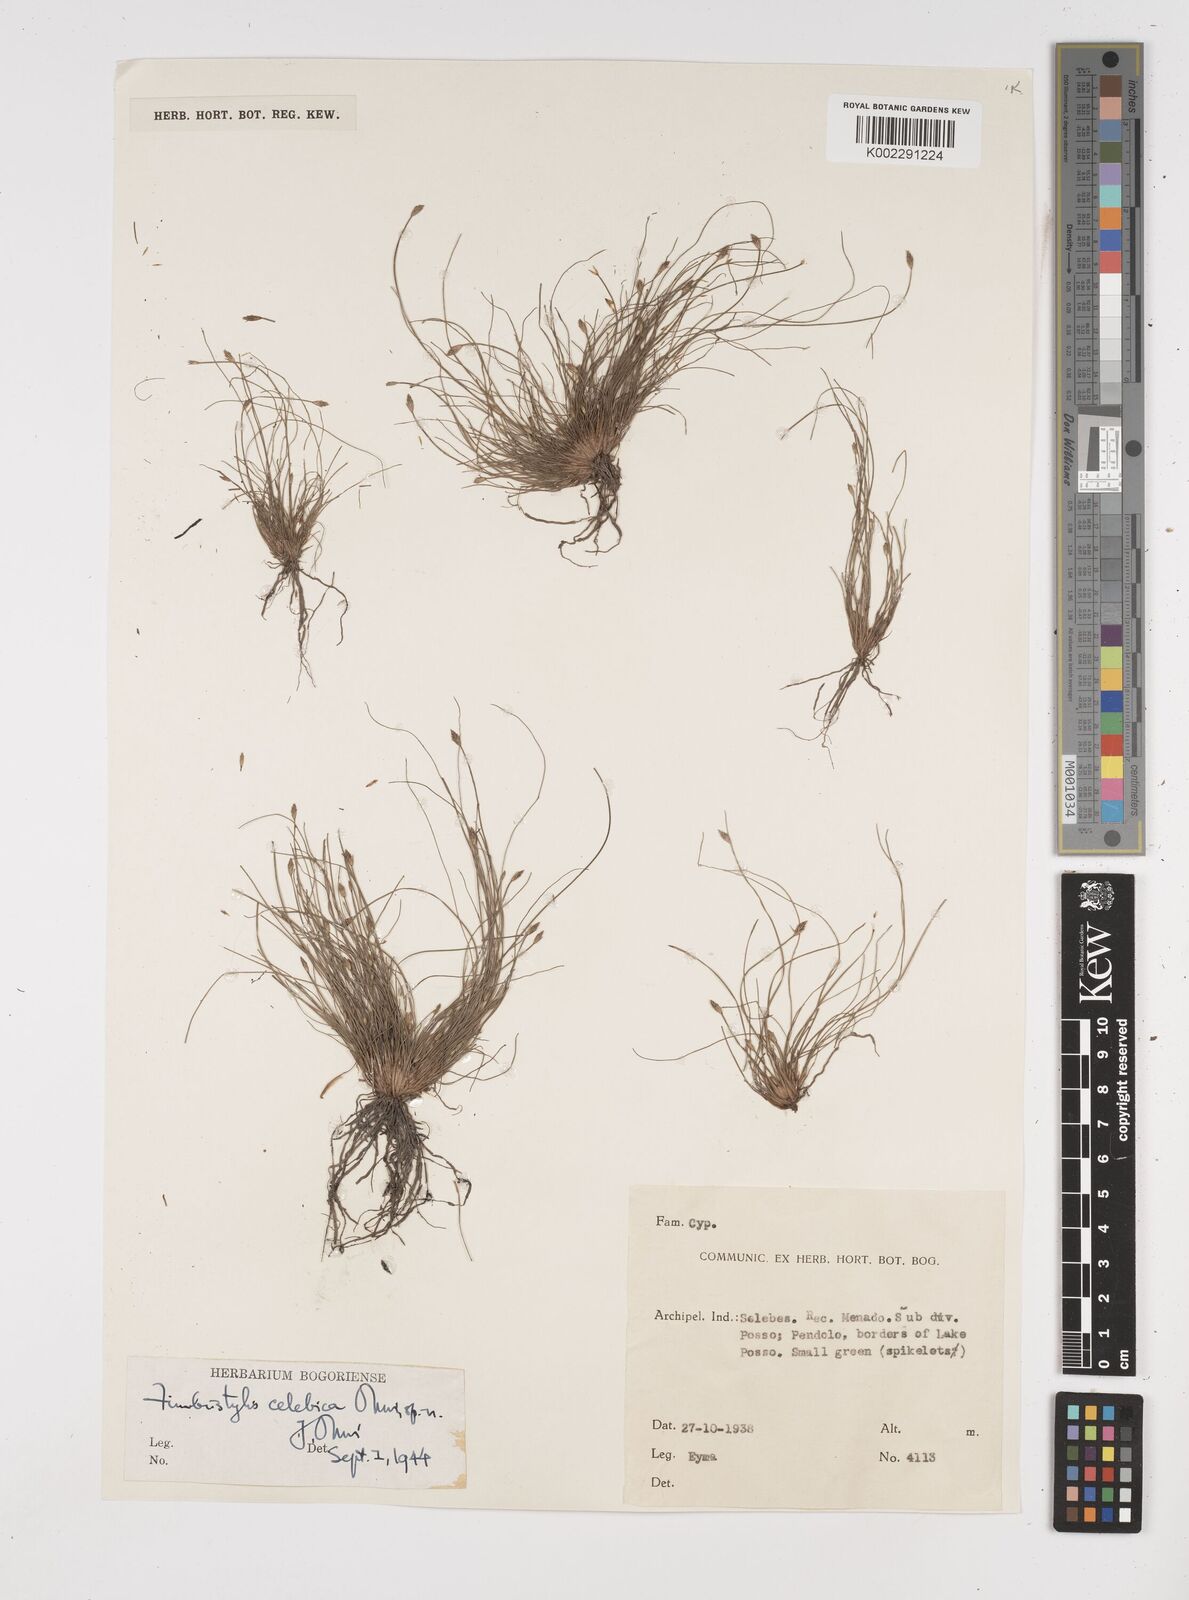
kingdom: Plantae
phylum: Tracheophyta
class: Liliopsida
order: Poales
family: Cyperaceae
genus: Fimbristylis
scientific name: Fimbristylis celebica
